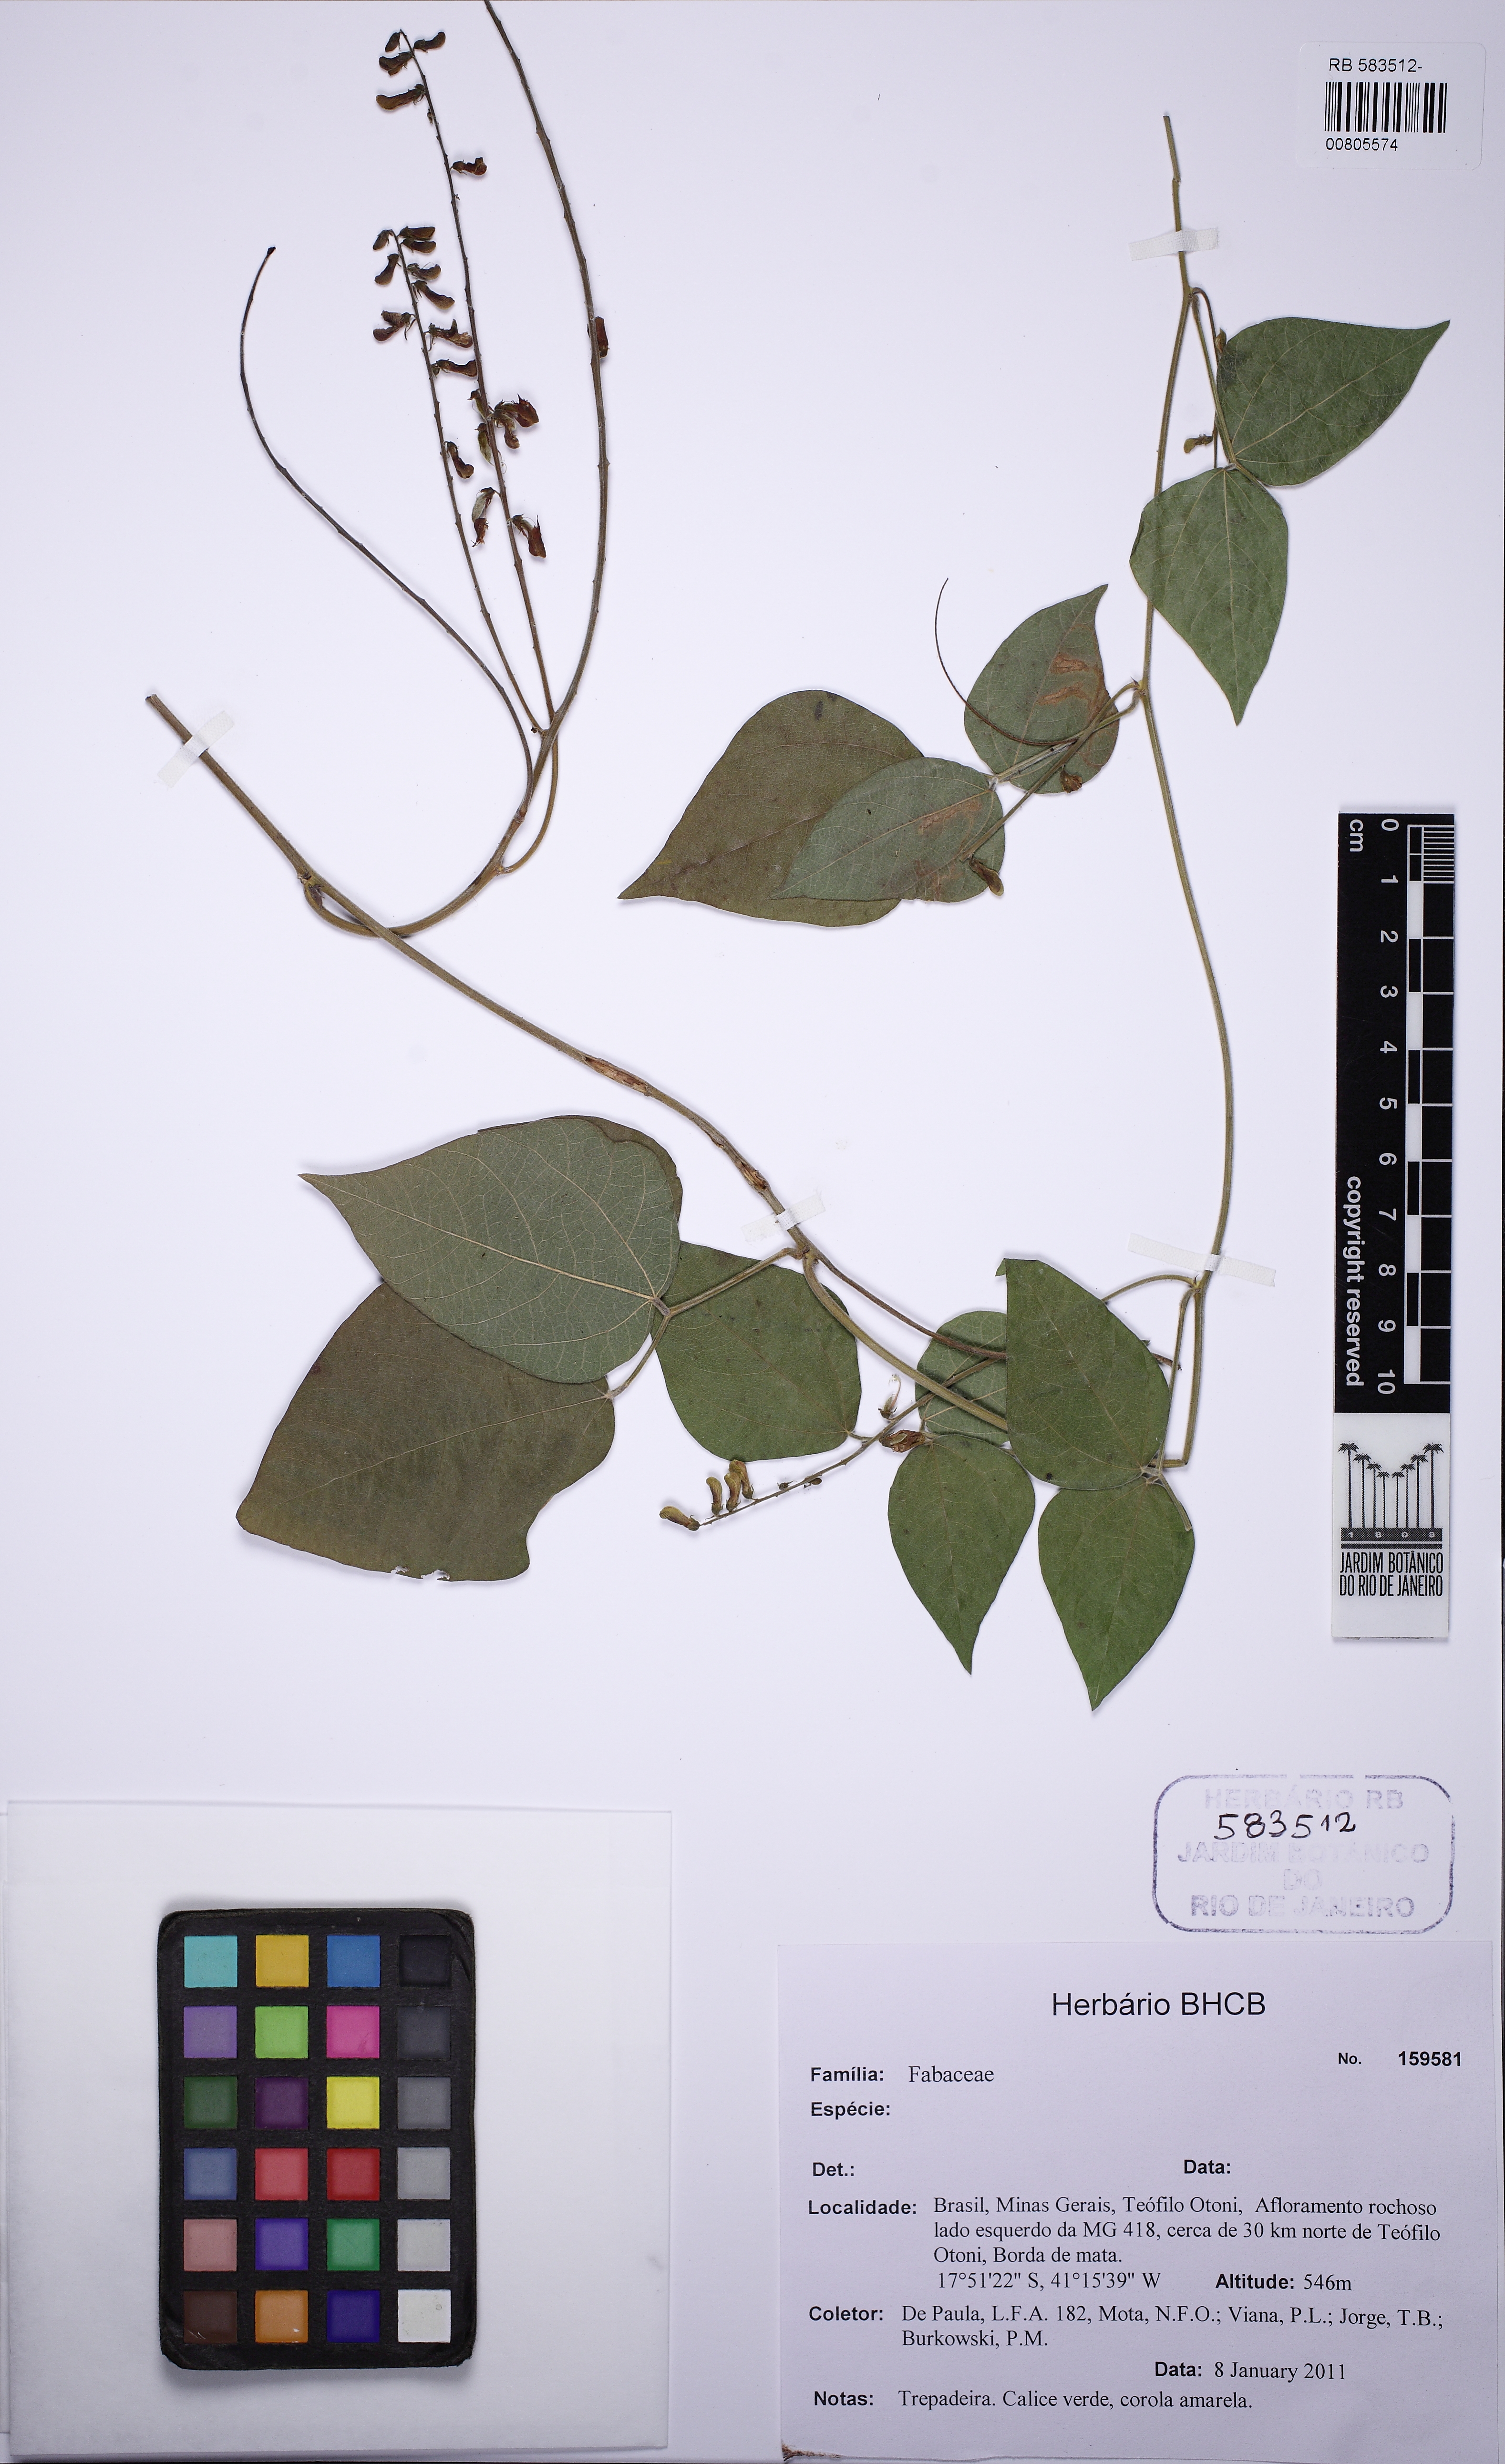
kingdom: Plantae
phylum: Tracheophyta
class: Magnoliopsida
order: Fabales
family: Fabaceae
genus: Rhynchosia
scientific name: Rhynchosia phaseoloides
